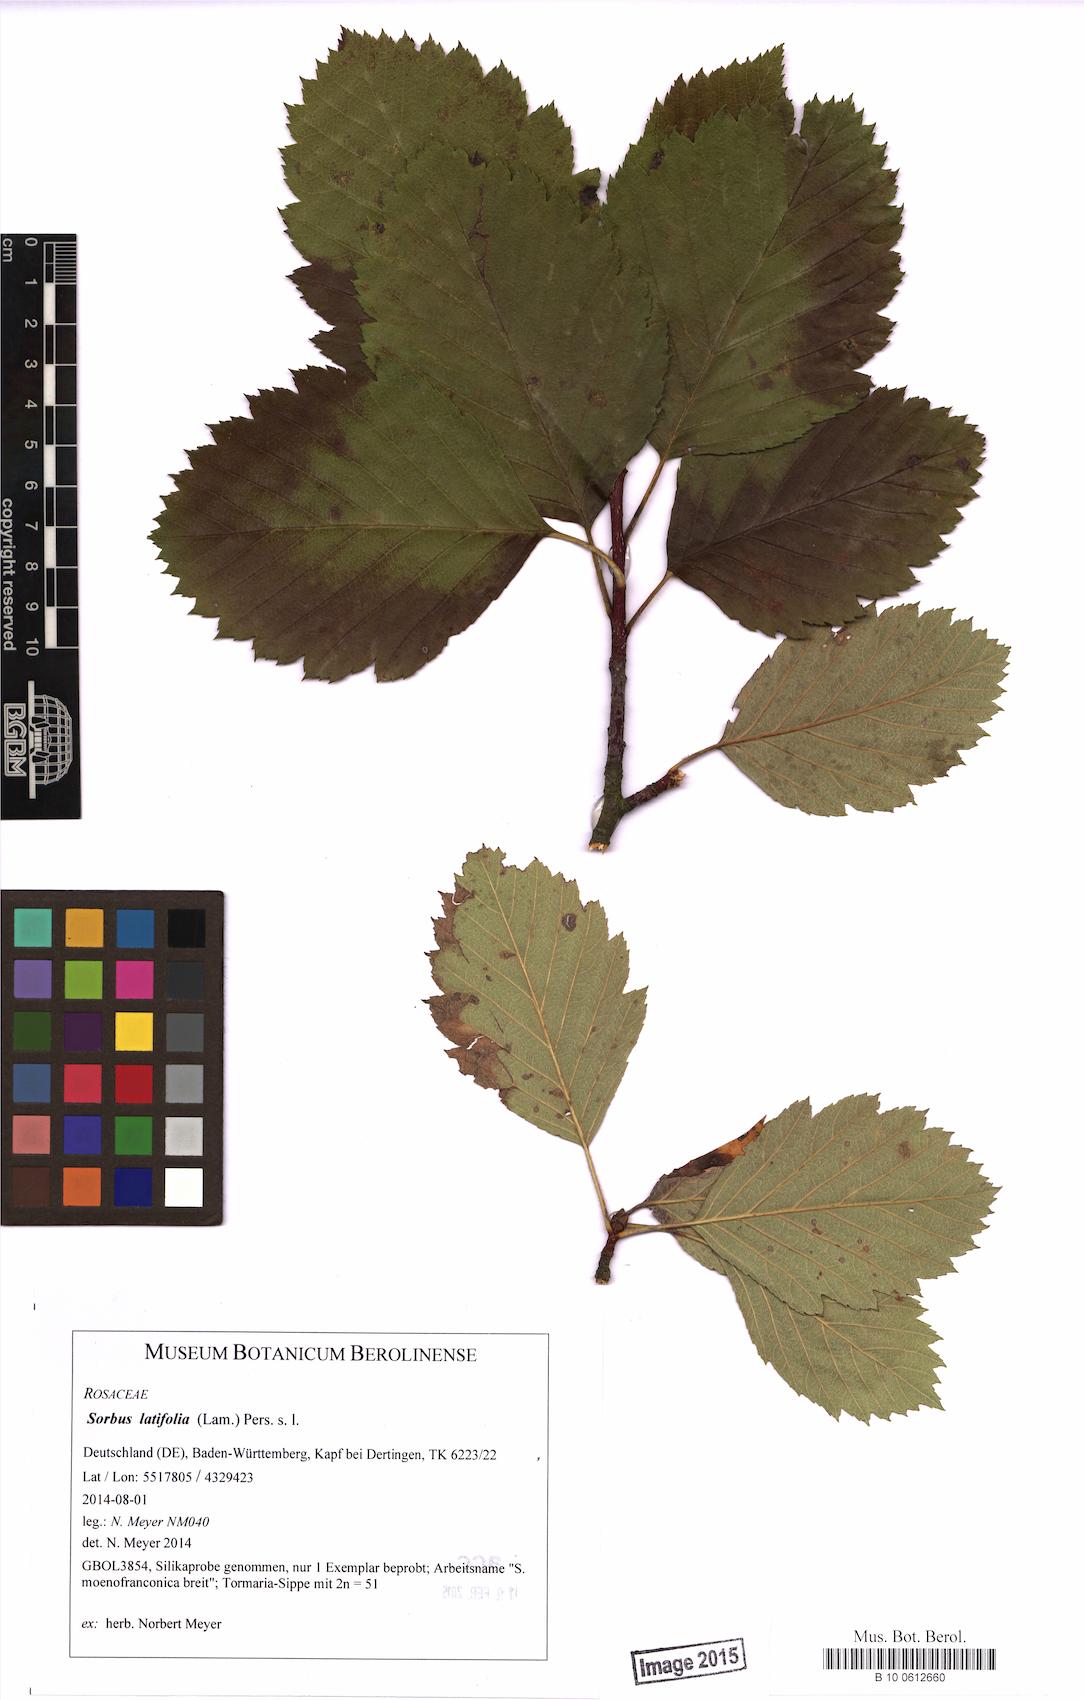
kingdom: Plantae
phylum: Tracheophyta
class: Magnoliopsida
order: Rosales
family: Rosaceae
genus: Karpatiosorbus
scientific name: Karpatiosorbus latifolia
